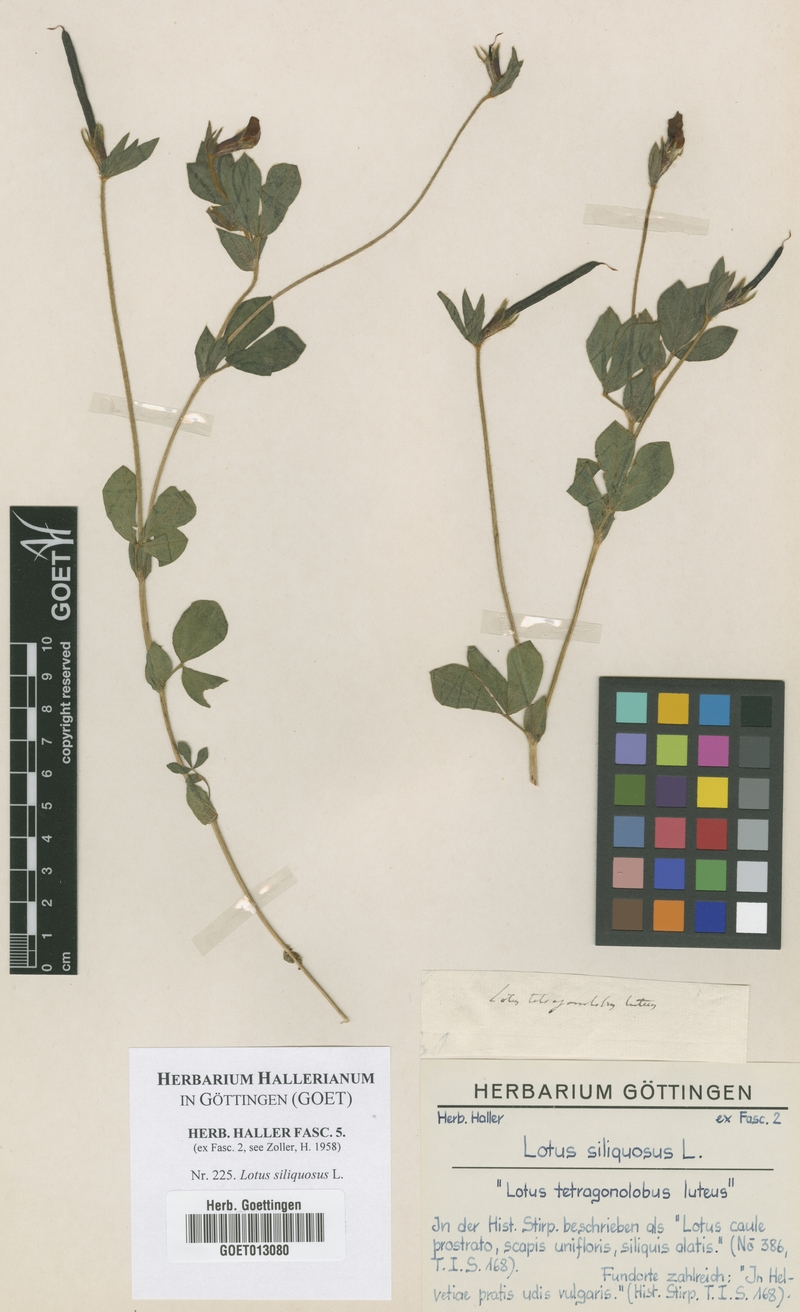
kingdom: Plantae
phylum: Tracheophyta
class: Magnoliopsida
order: Fabales
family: Fabaceae
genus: Lathyrus
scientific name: Lathyrus inconspicuus
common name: Inconspicuous pea
